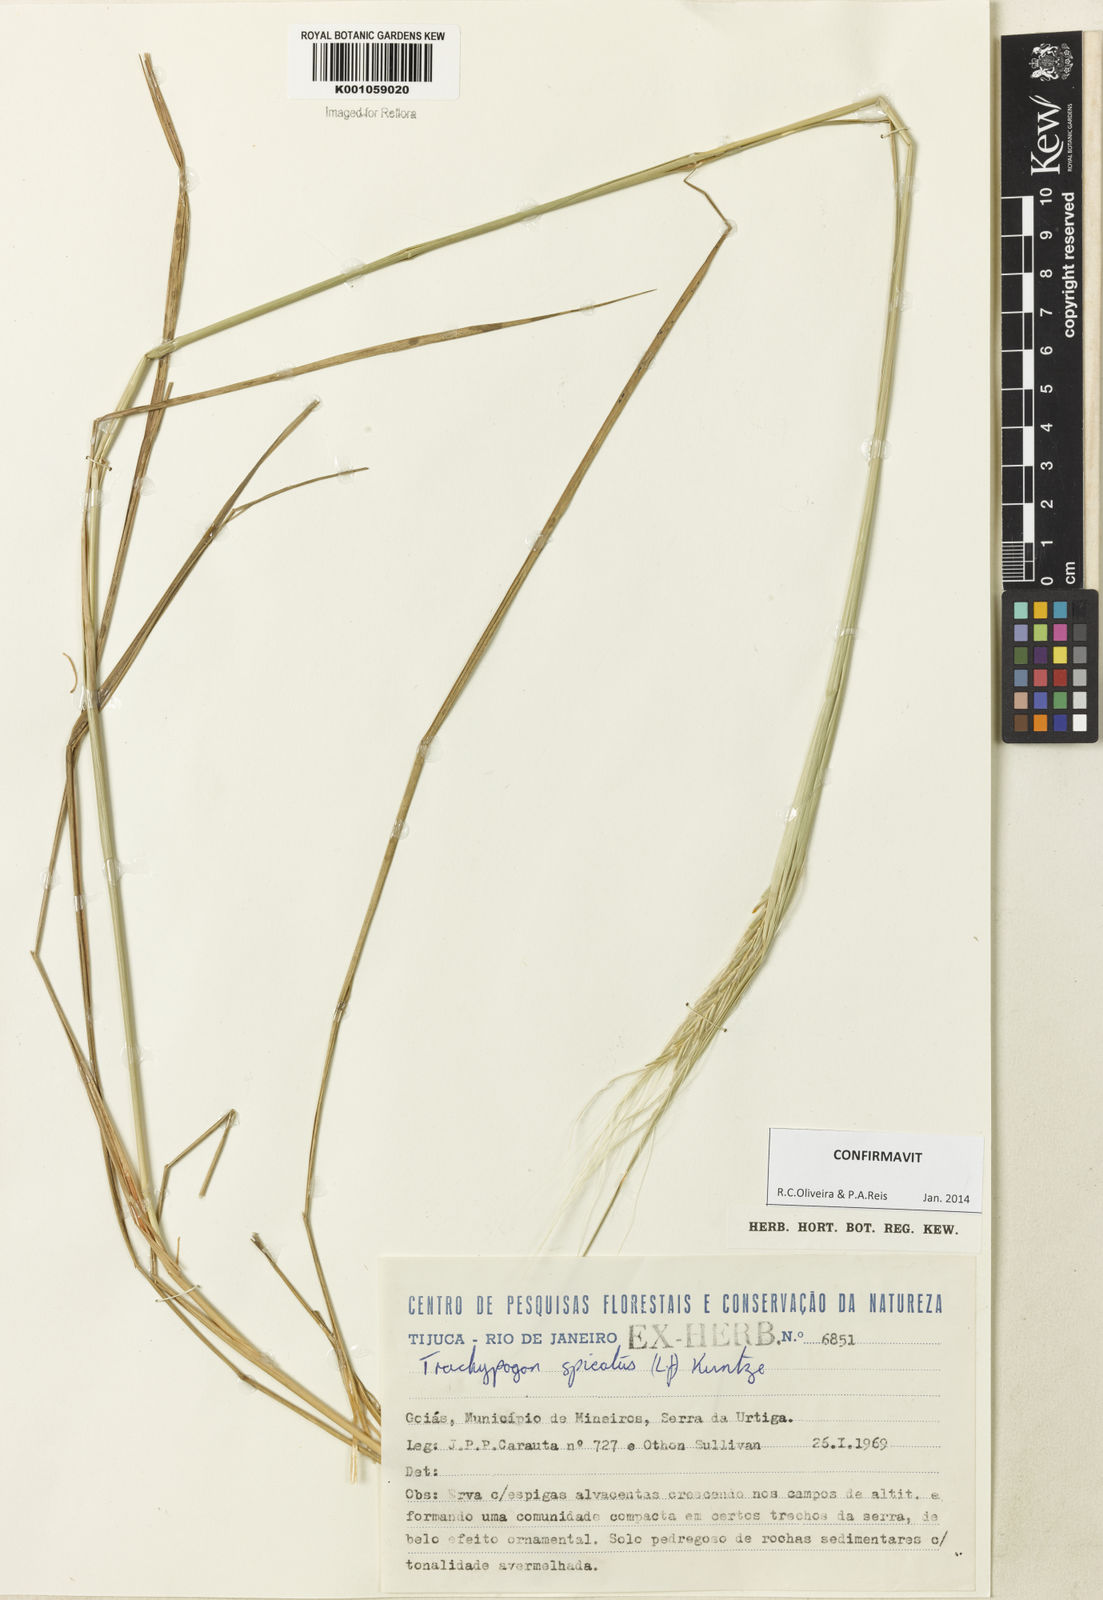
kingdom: Plantae
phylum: Tracheophyta
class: Liliopsida
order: Poales
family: Poaceae
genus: Trachypogon
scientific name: Trachypogon spicatus
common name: Crinkle-awn
